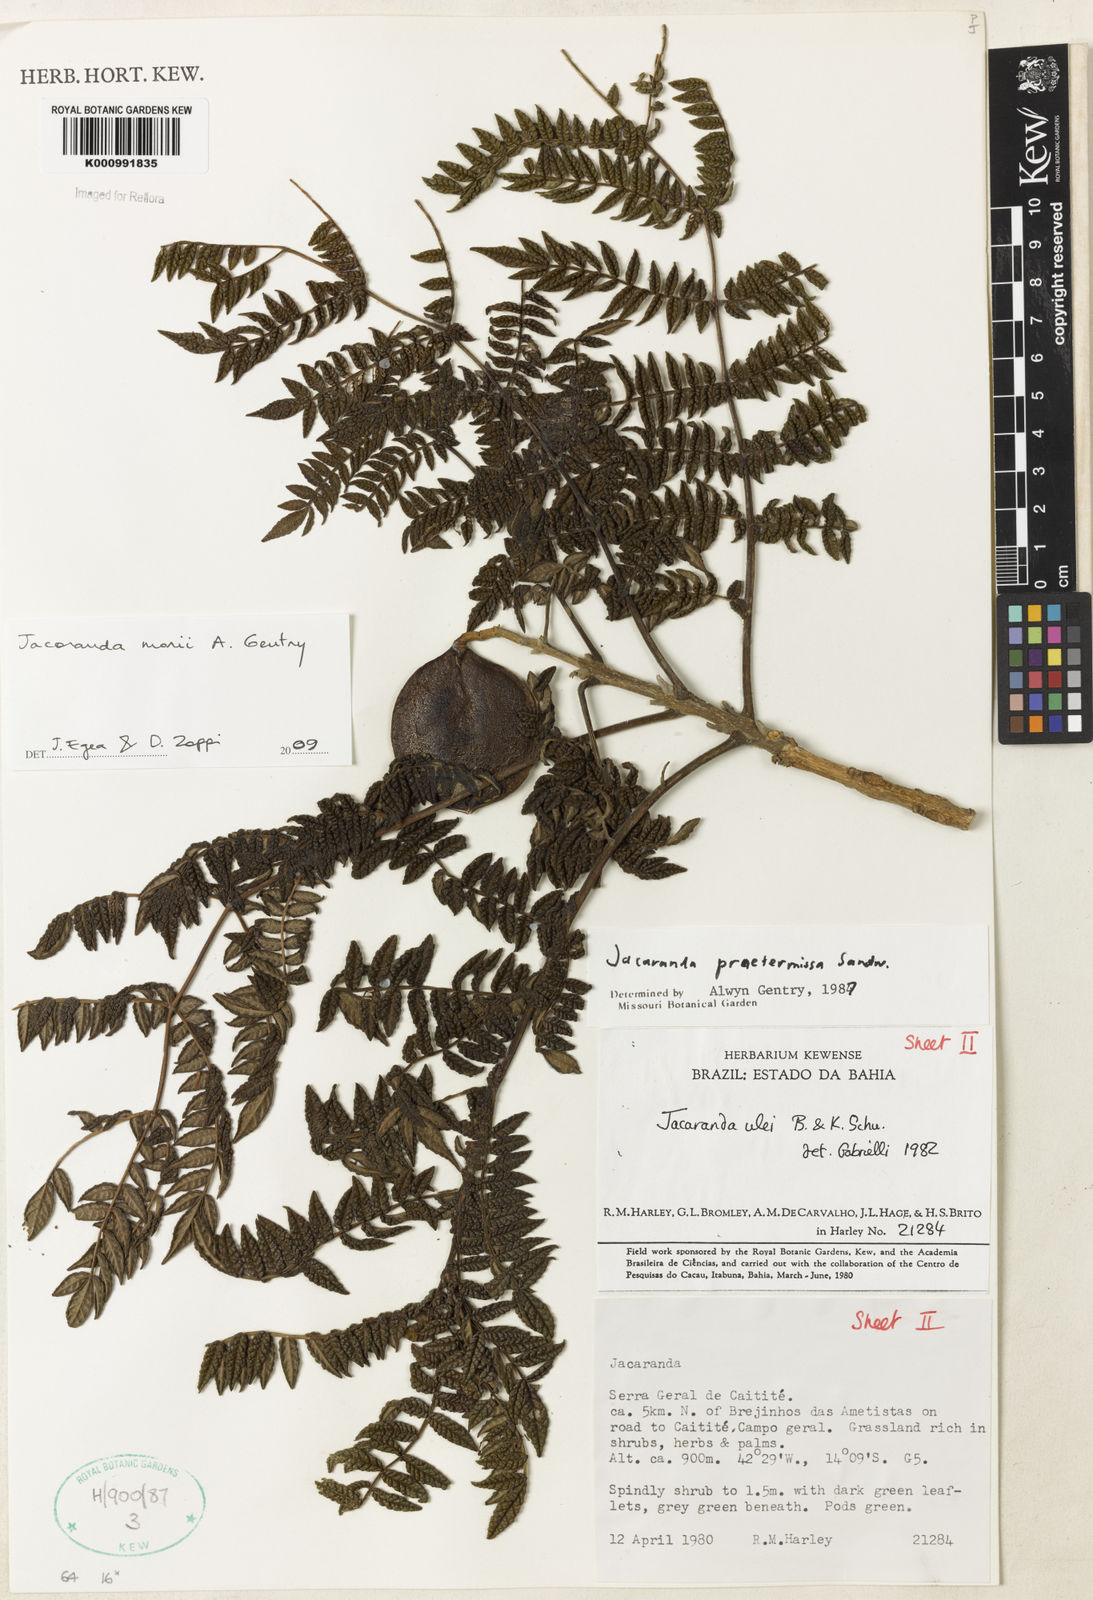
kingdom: Plantae
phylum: Tracheophyta
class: Magnoliopsida
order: Lamiales
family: Bignoniaceae
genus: Jacaranda
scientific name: Jacaranda ulei
